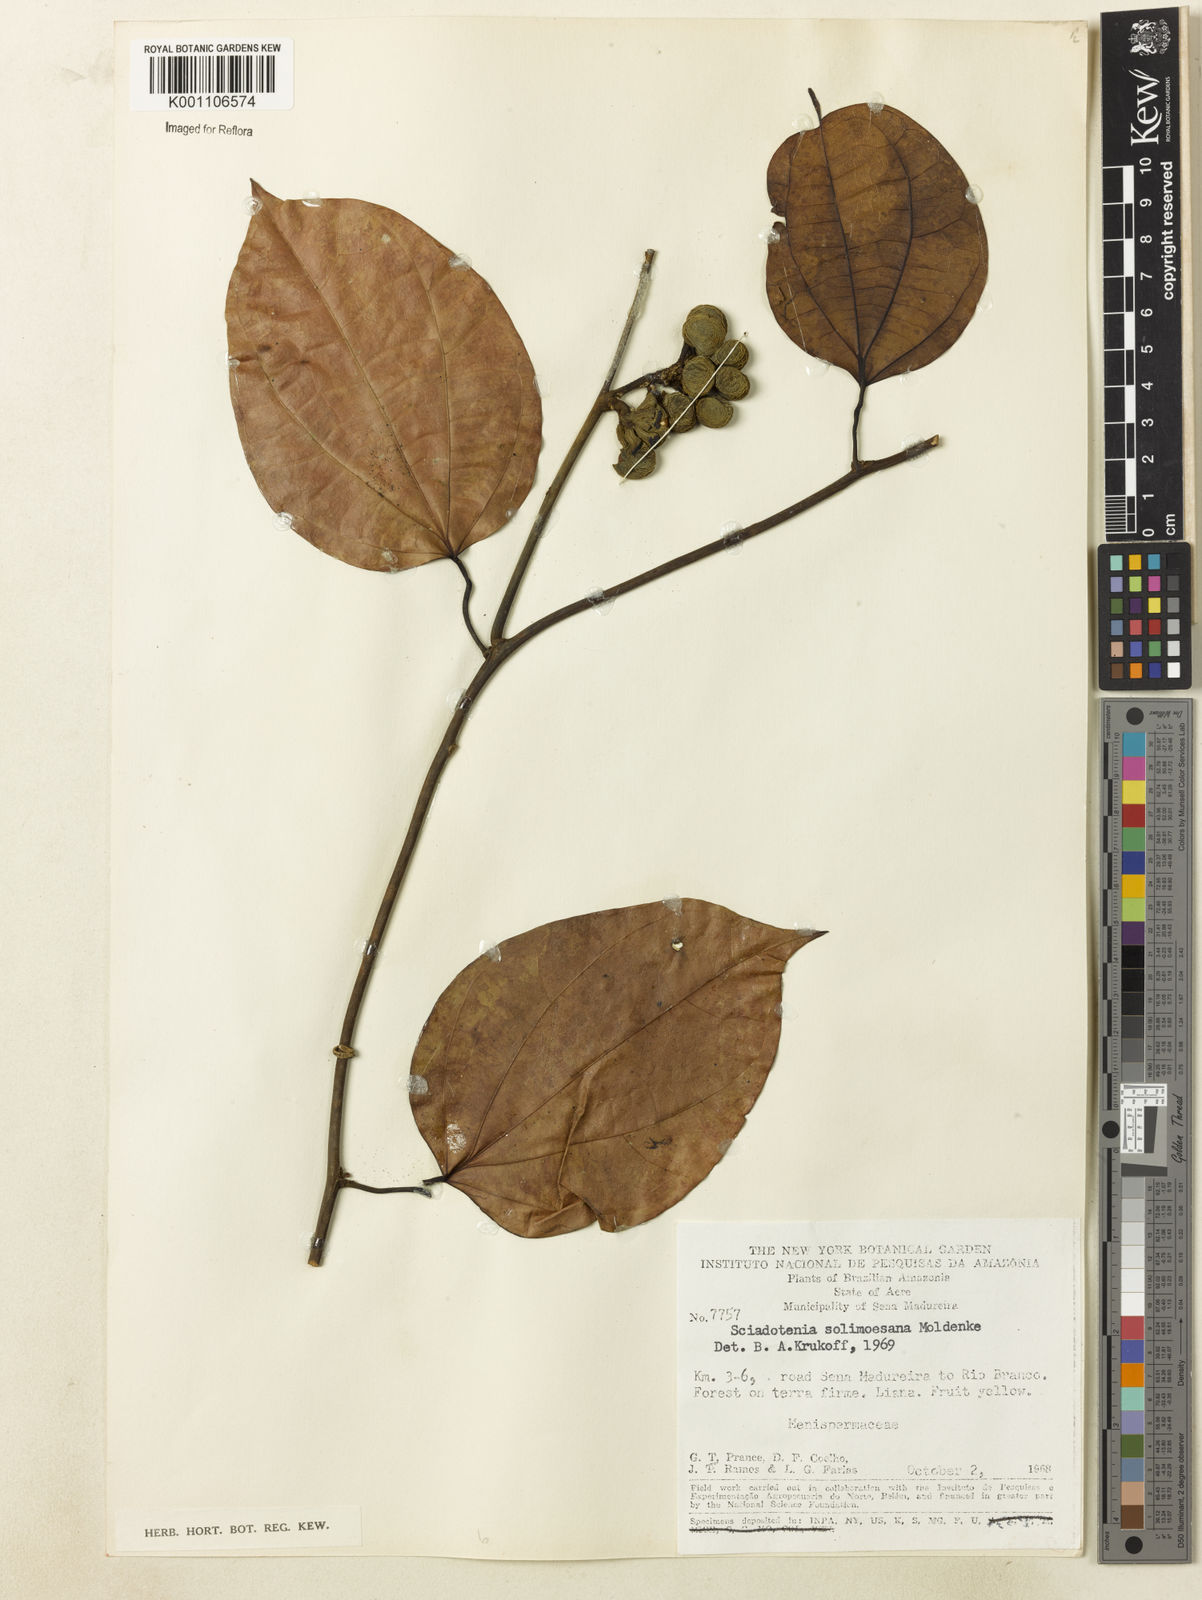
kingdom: Plantae
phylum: Tracheophyta
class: Magnoliopsida
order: Ranunculales
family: Menispermaceae
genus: Sciadotenia
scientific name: Sciadotenia solimoesana
